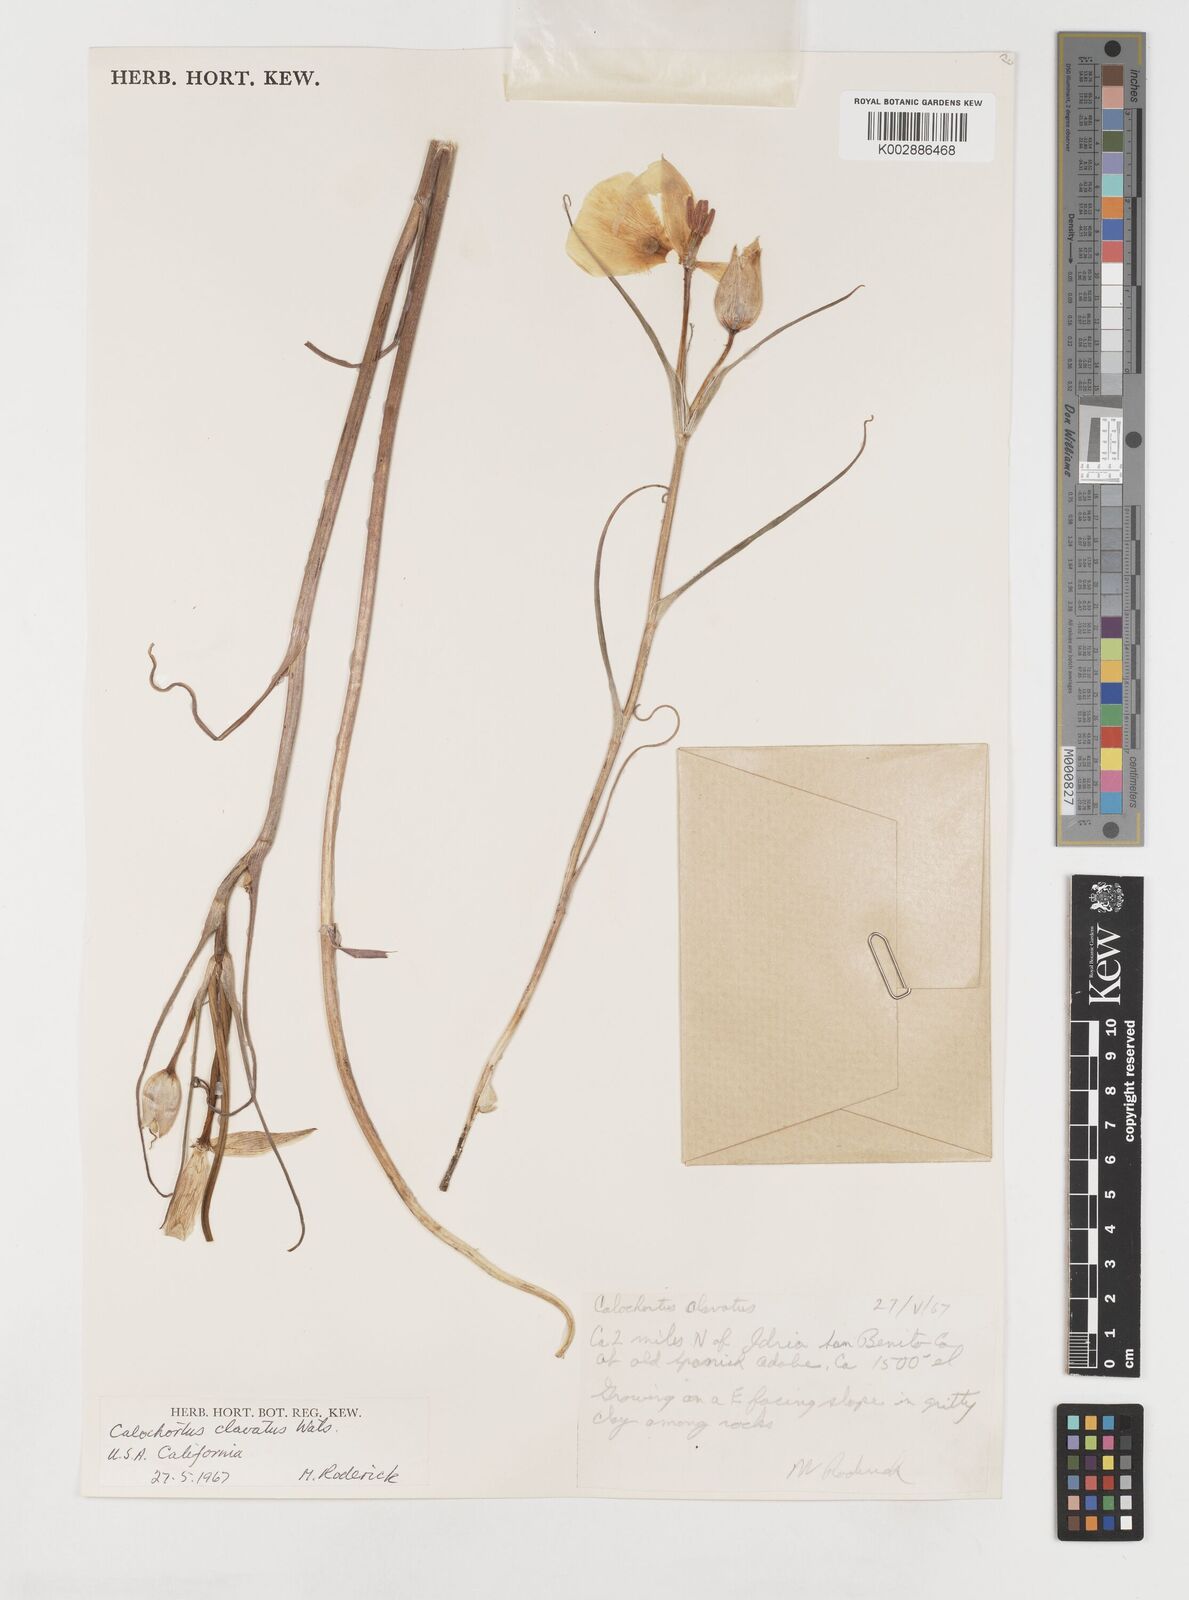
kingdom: Plantae
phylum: Tracheophyta
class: Liliopsida
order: Liliales
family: Liliaceae
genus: Calochortus
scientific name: Calochortus clavatus
